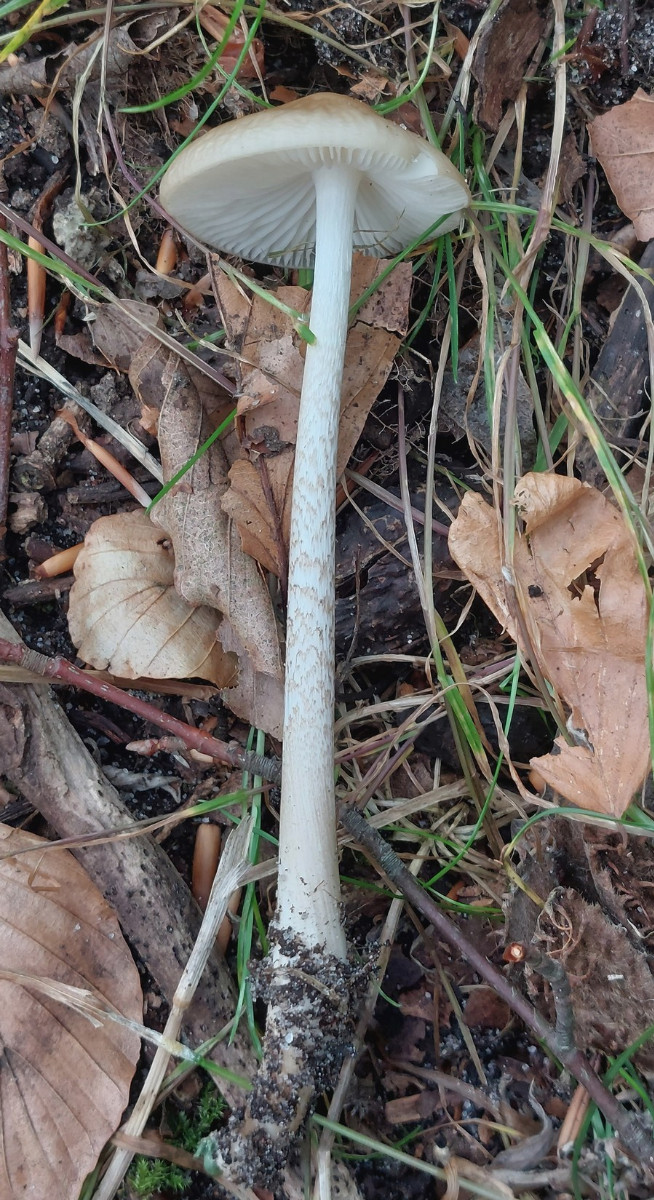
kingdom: Fungi
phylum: Basidiomycota
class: Agaricomycetes
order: Agaricales
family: Physalacriaceae
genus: Hymenopellis
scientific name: Hymenopellis radicata
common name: almindelig pælerodshat
